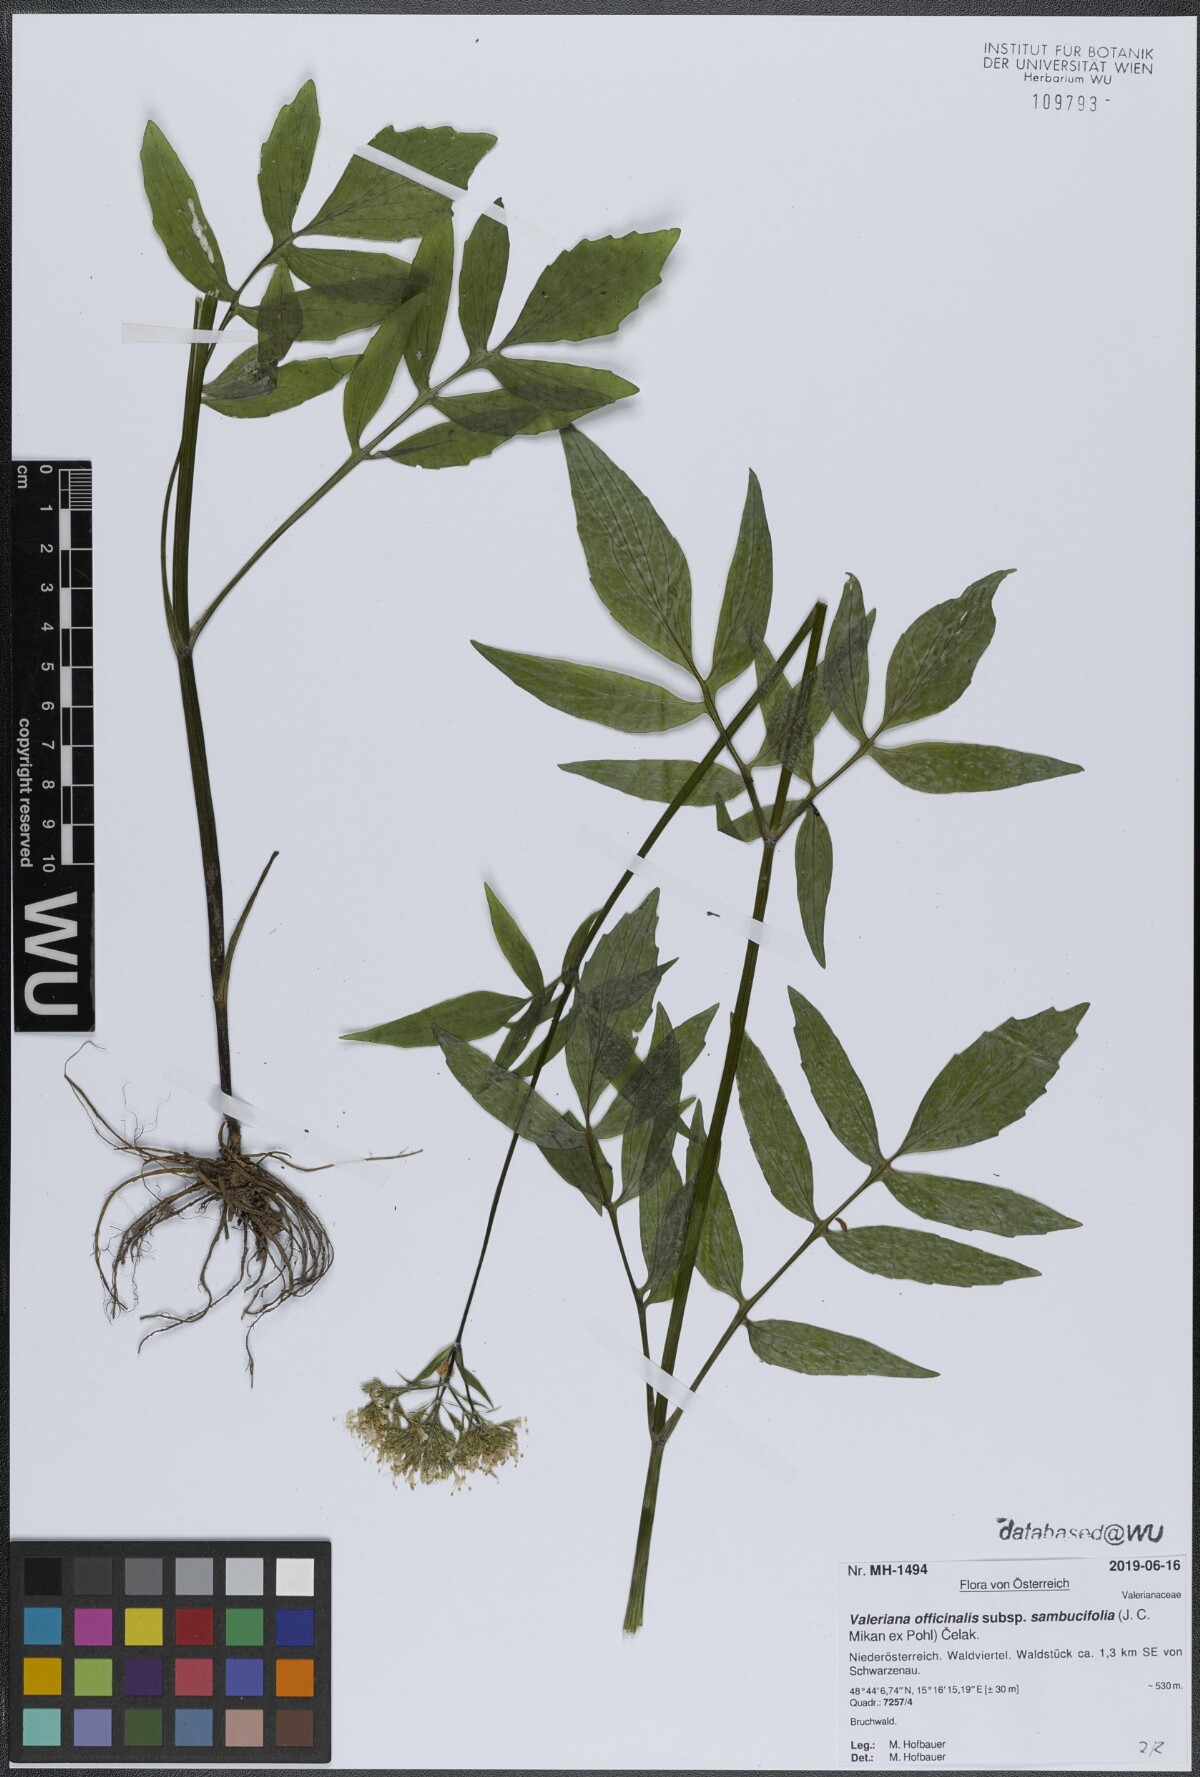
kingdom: Plantae
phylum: Tracheophyta
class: Magnoliopsida
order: Dipsacales
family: Caprifoliaceae
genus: Valeriana
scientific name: Valeriana excelsa
